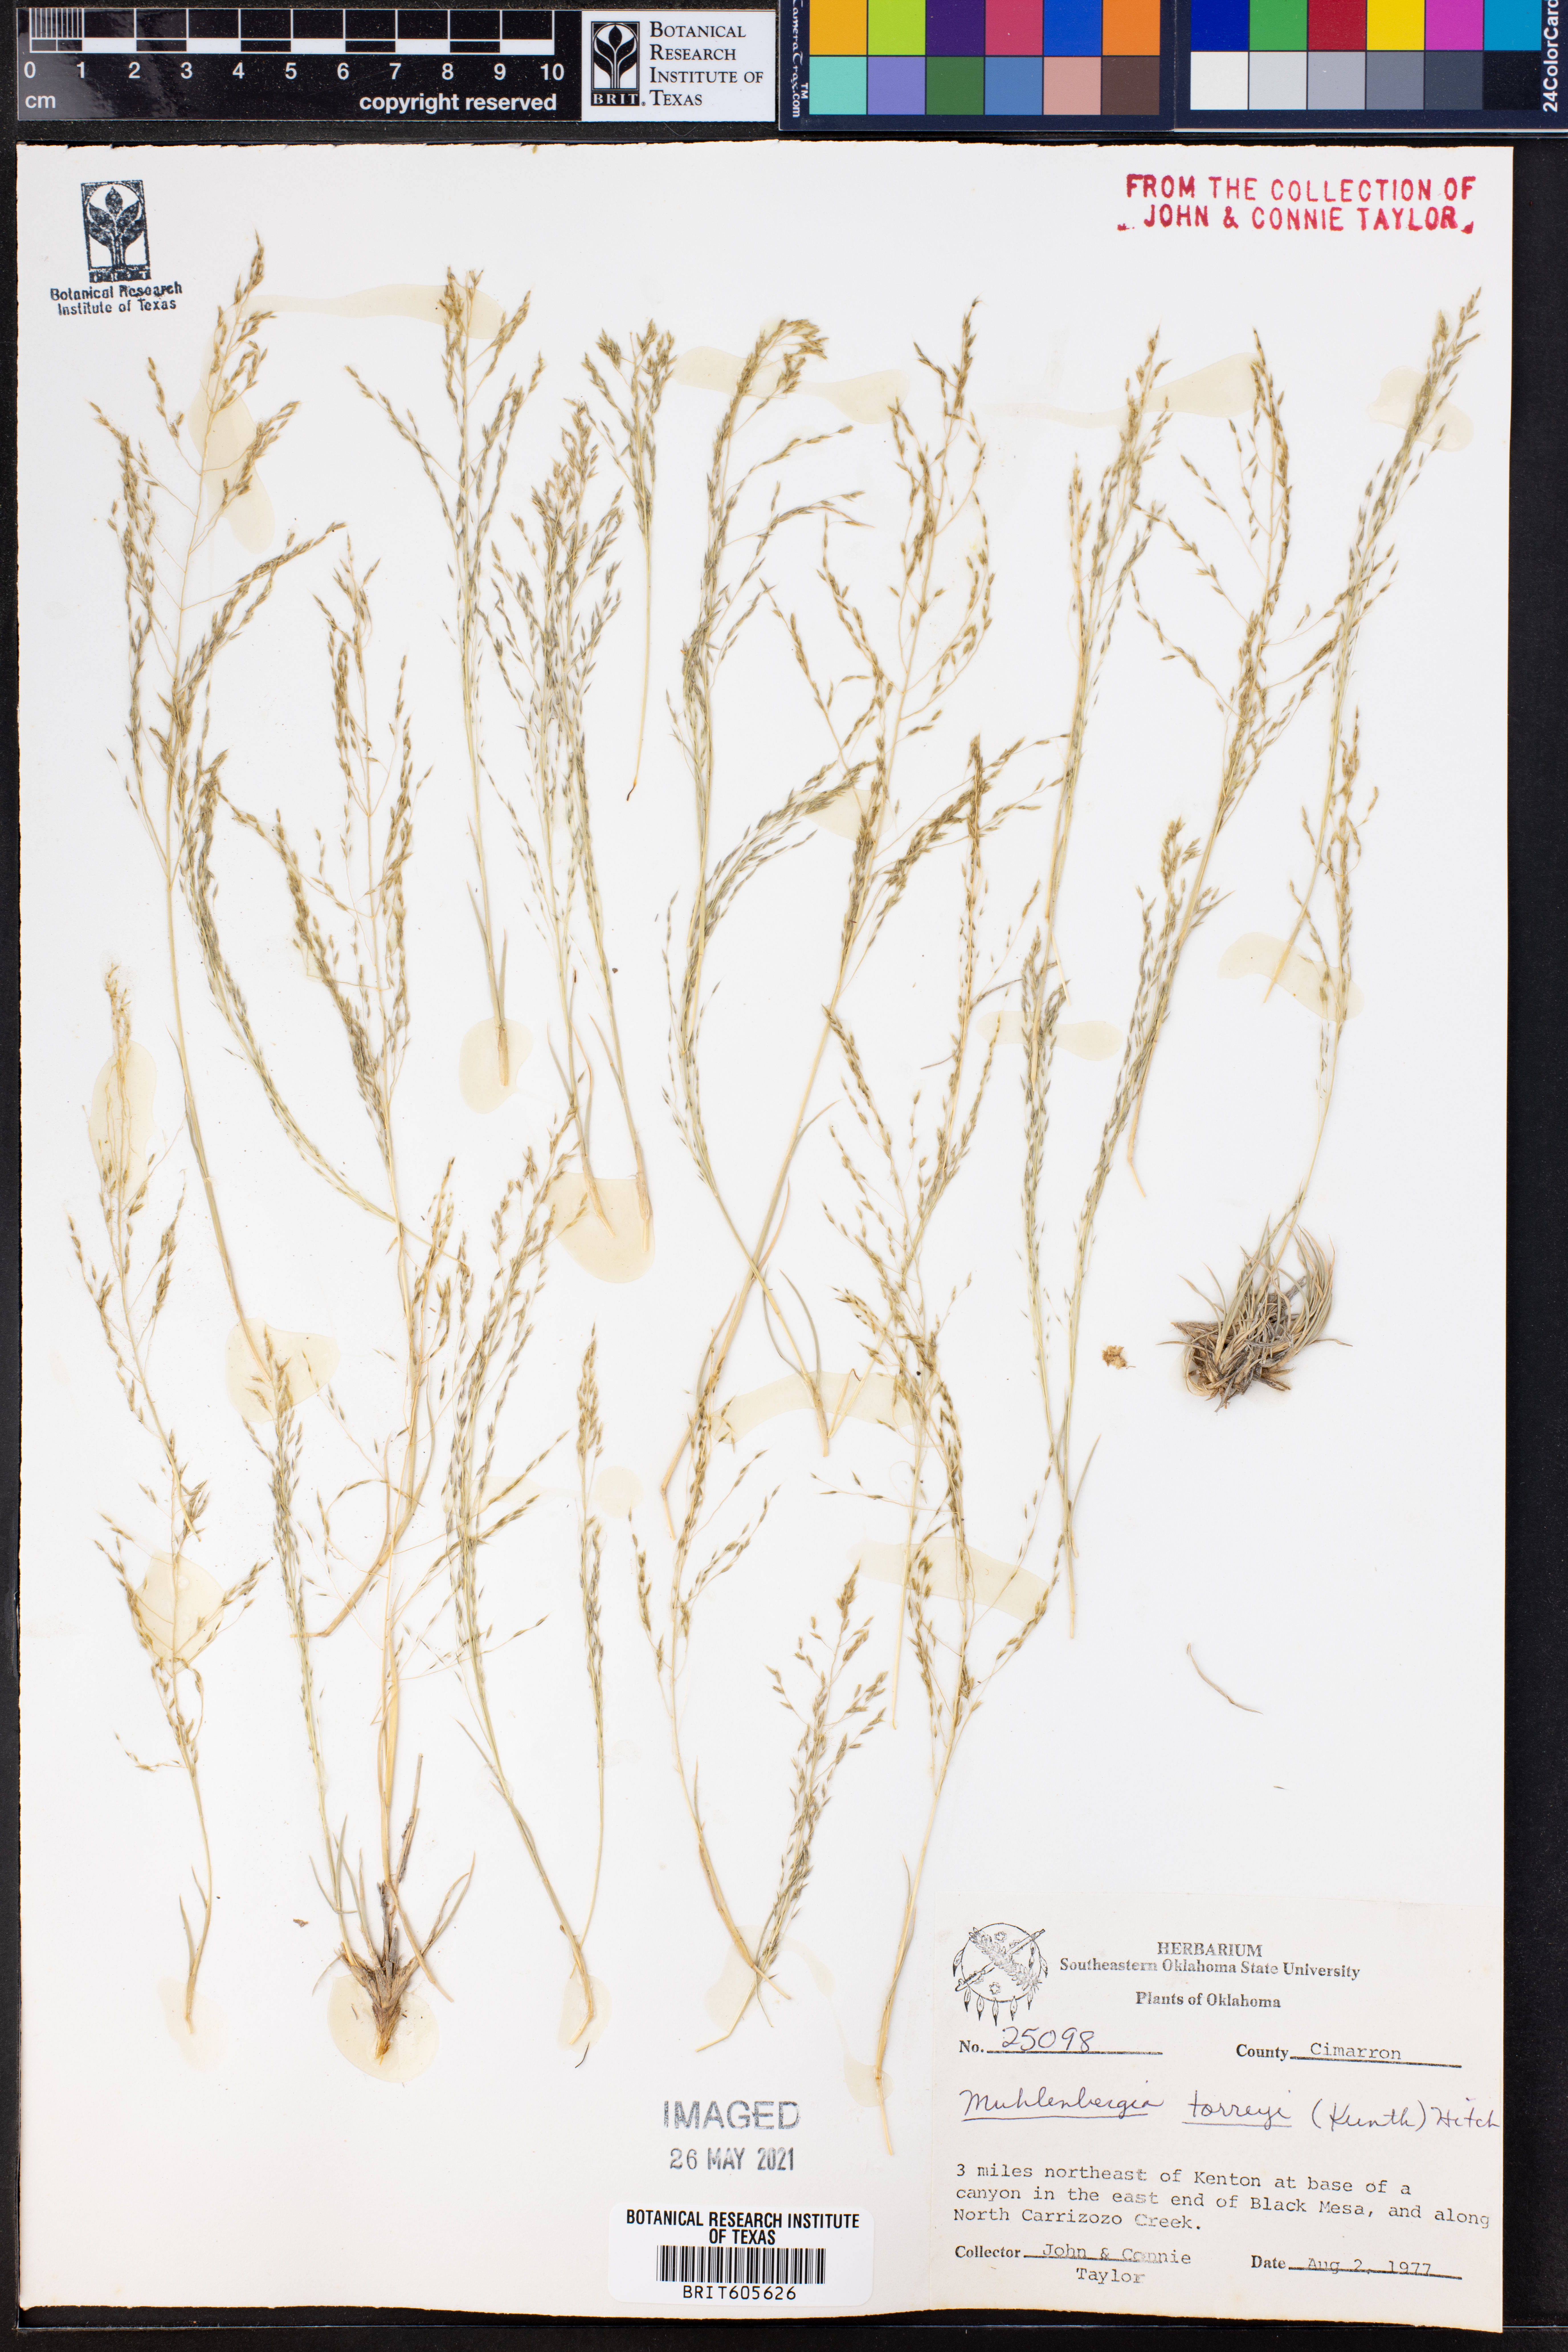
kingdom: Plantae
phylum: Tracheophyta
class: Liliopsida
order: Poales
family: Poaceae
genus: Muhlenbergia
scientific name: Muhlenbergia torreyi
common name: Ring grass
